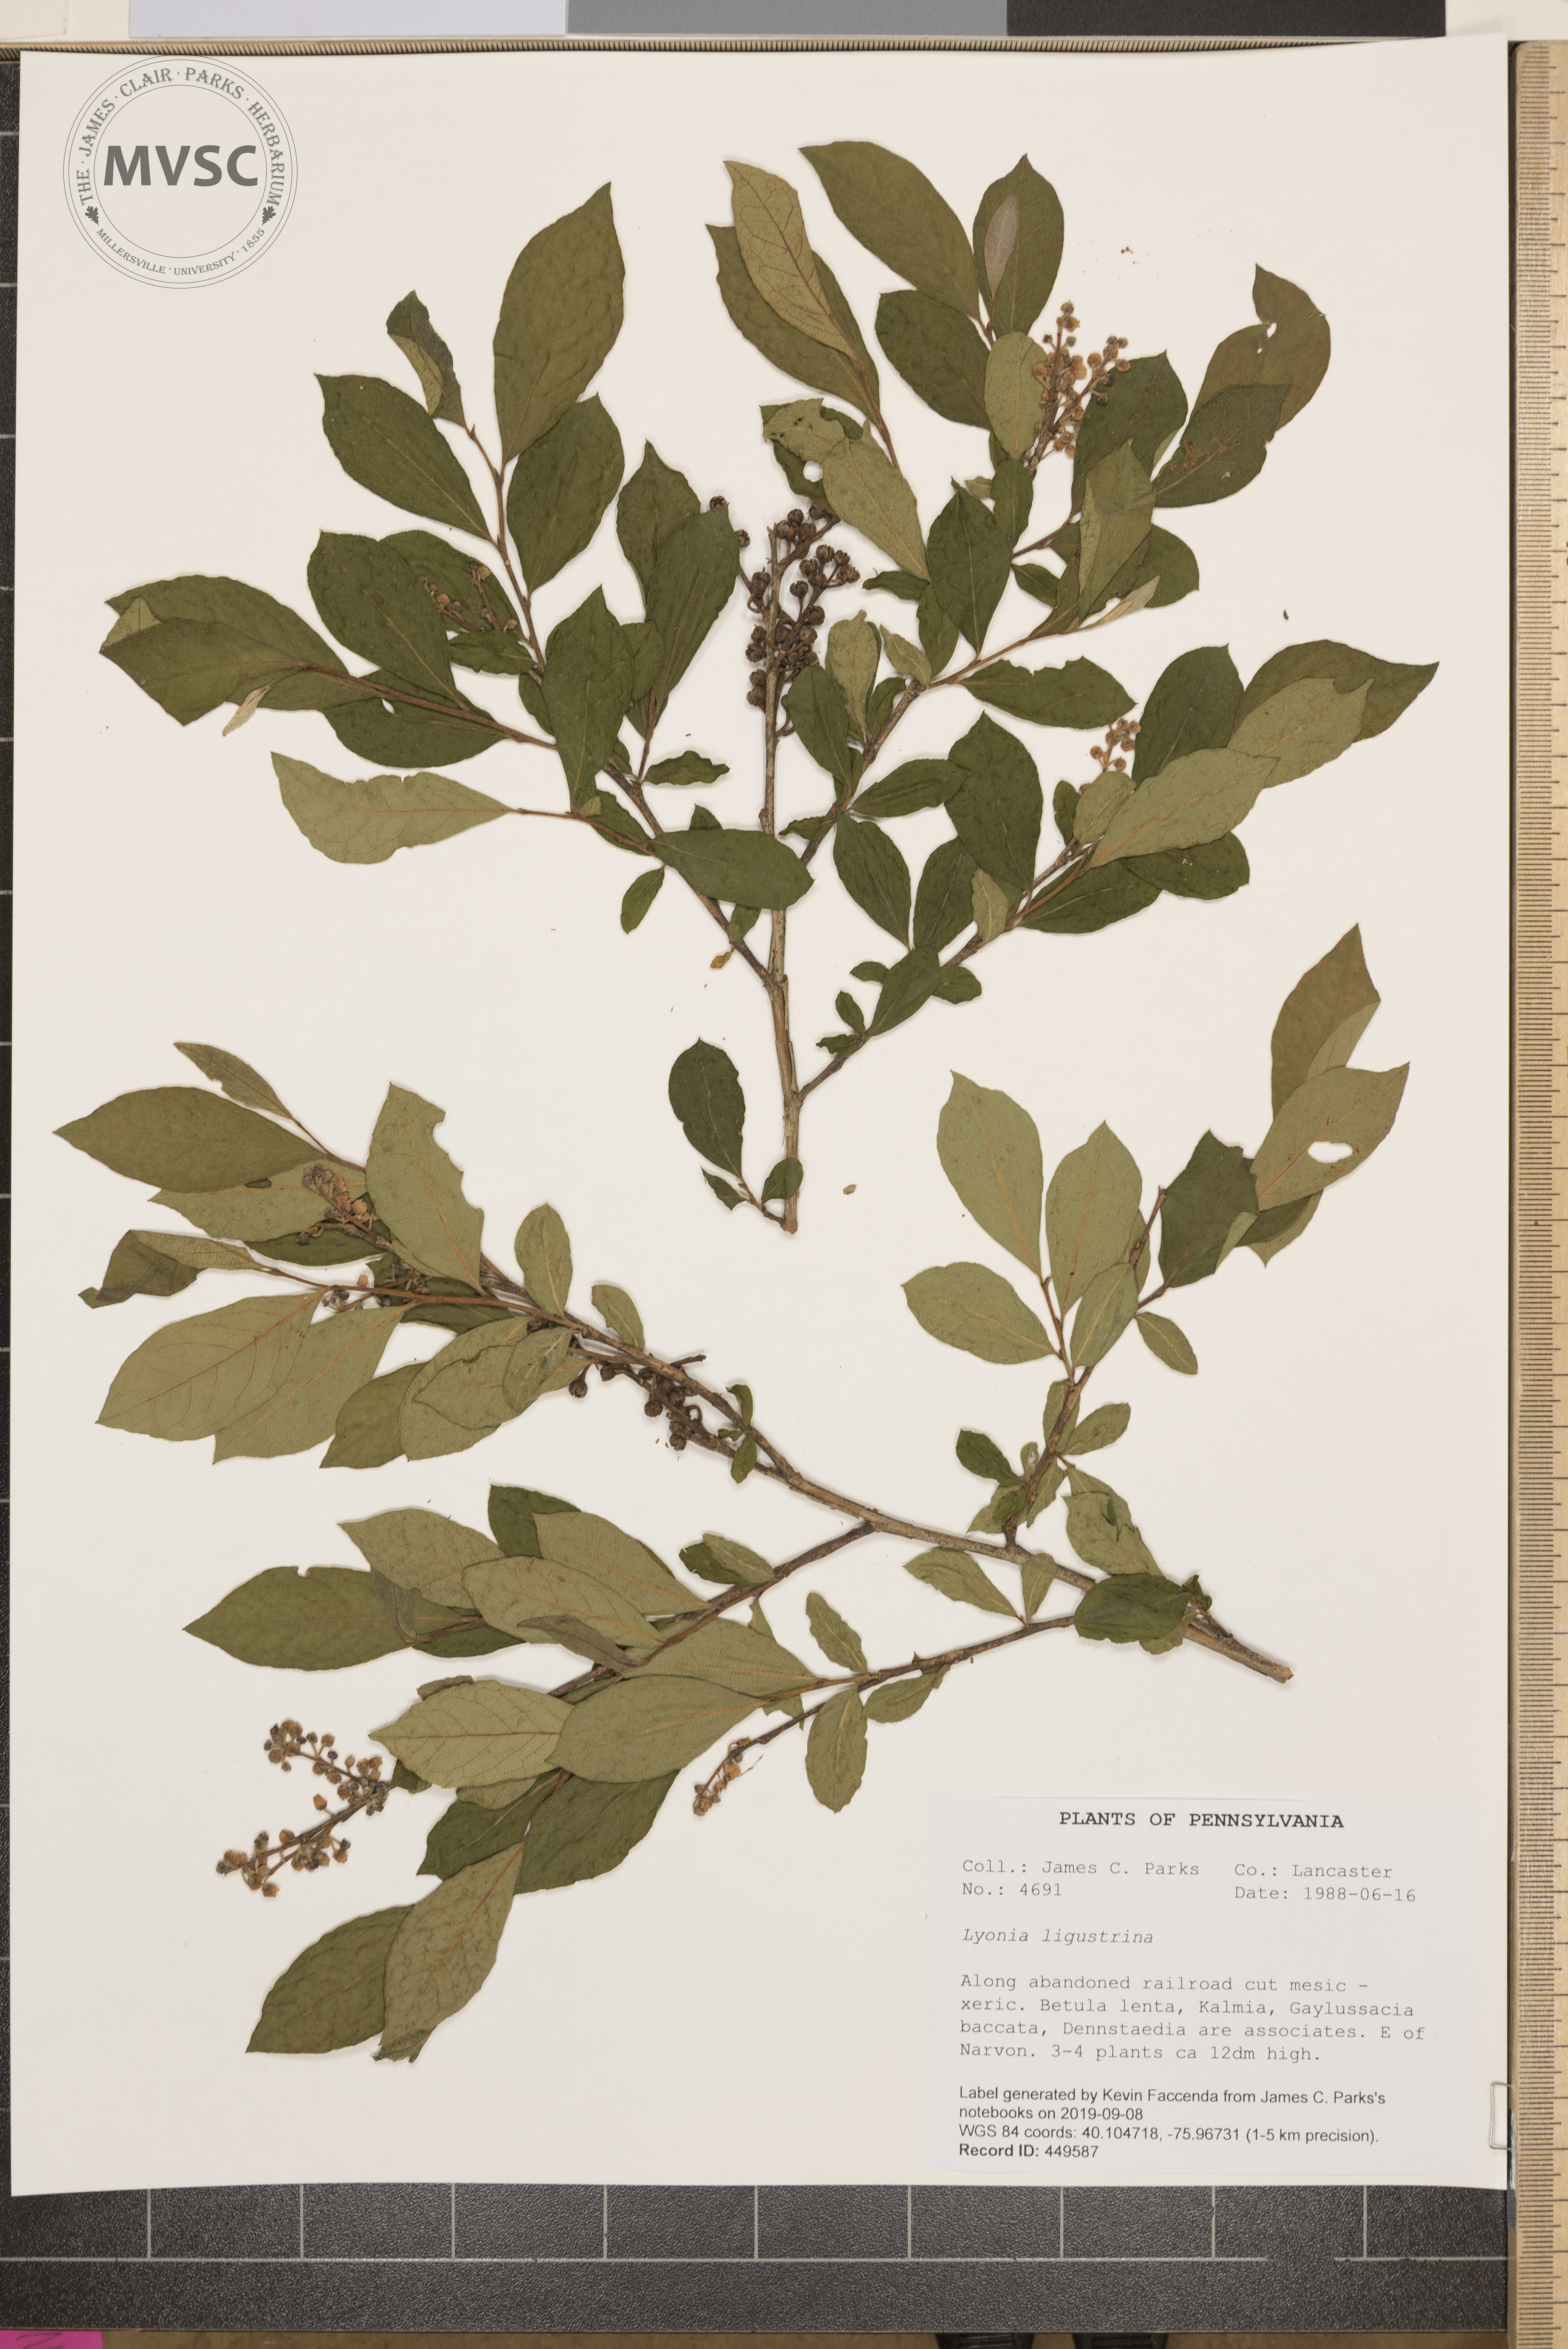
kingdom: Plantae
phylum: Tracheophyta
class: Magnoliopsida
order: Ericales
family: Ericaceae
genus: Lyonia
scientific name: Lyonia ligustrina
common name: Maleberry
